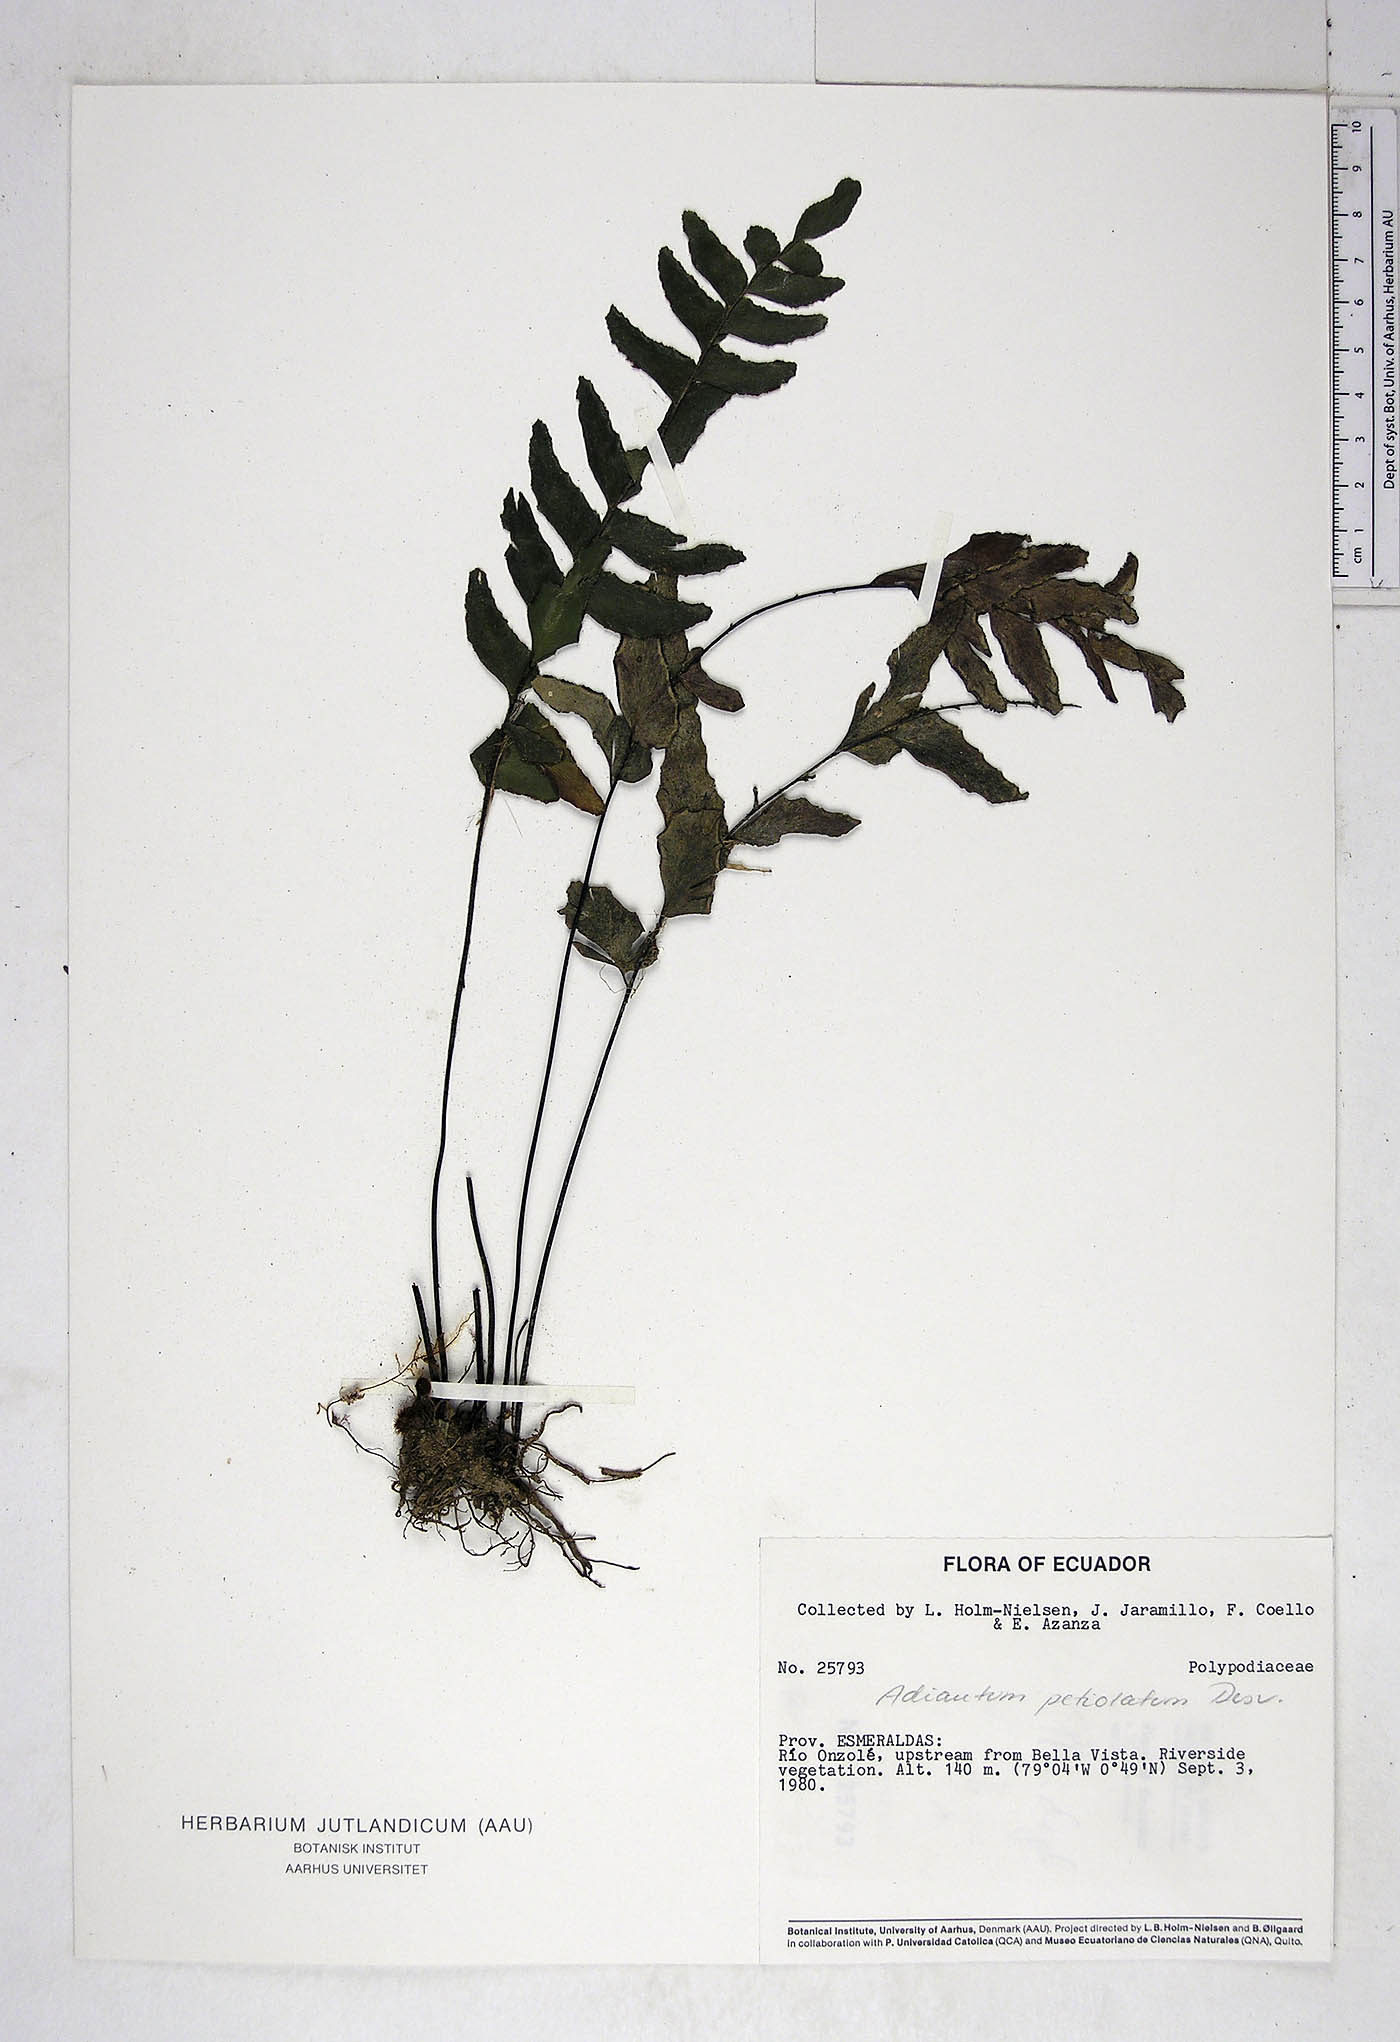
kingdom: Plantae
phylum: Tracheophyta
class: Polypodiopsida
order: Polypodiales
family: Pteridaceae
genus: Adiantum
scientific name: Adiantum petiolatum
